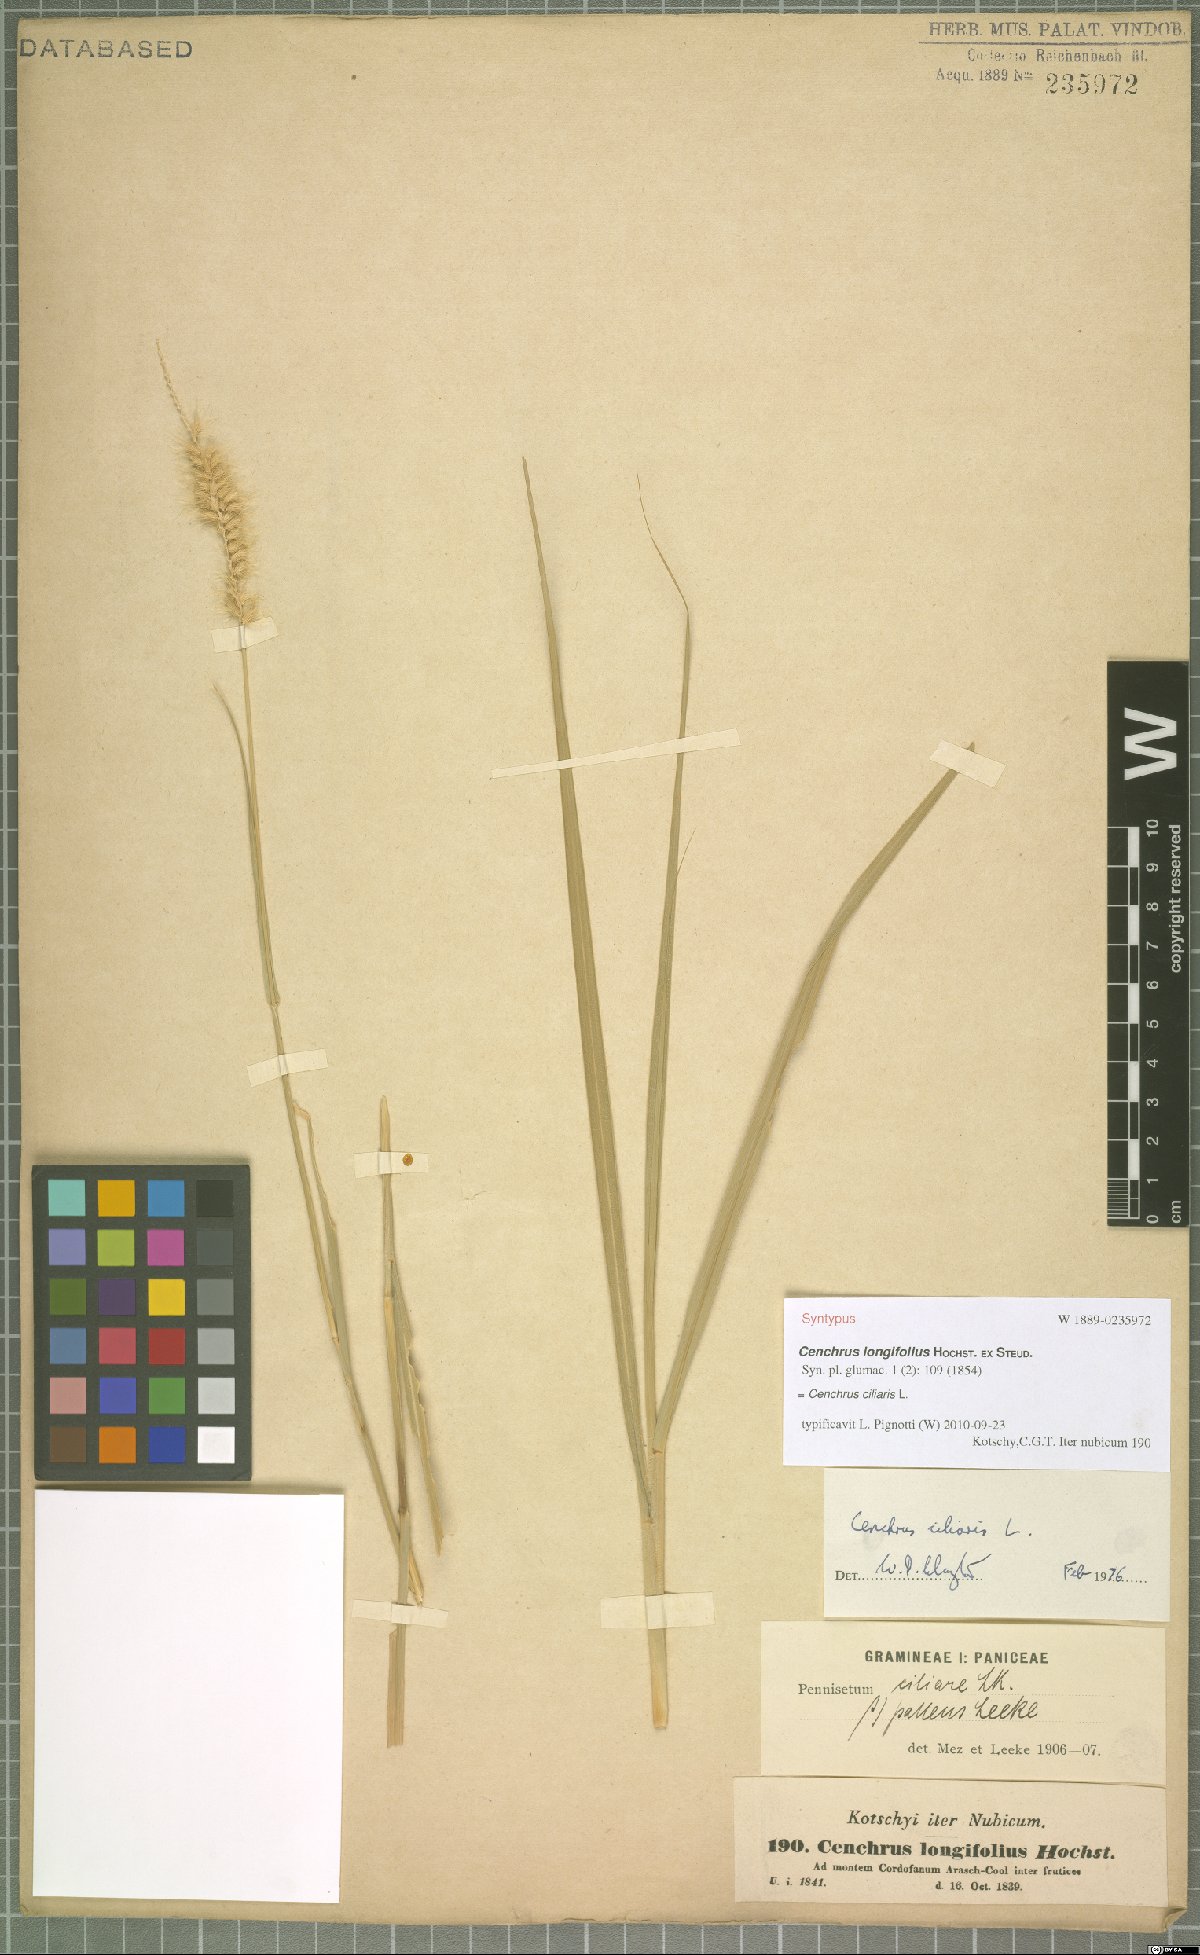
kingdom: Plantae
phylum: Tracheophyta
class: Liliopsida
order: Poales
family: Poaceae
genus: Cenchrus
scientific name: Cenchrus ciliaris
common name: Buffelgrass
